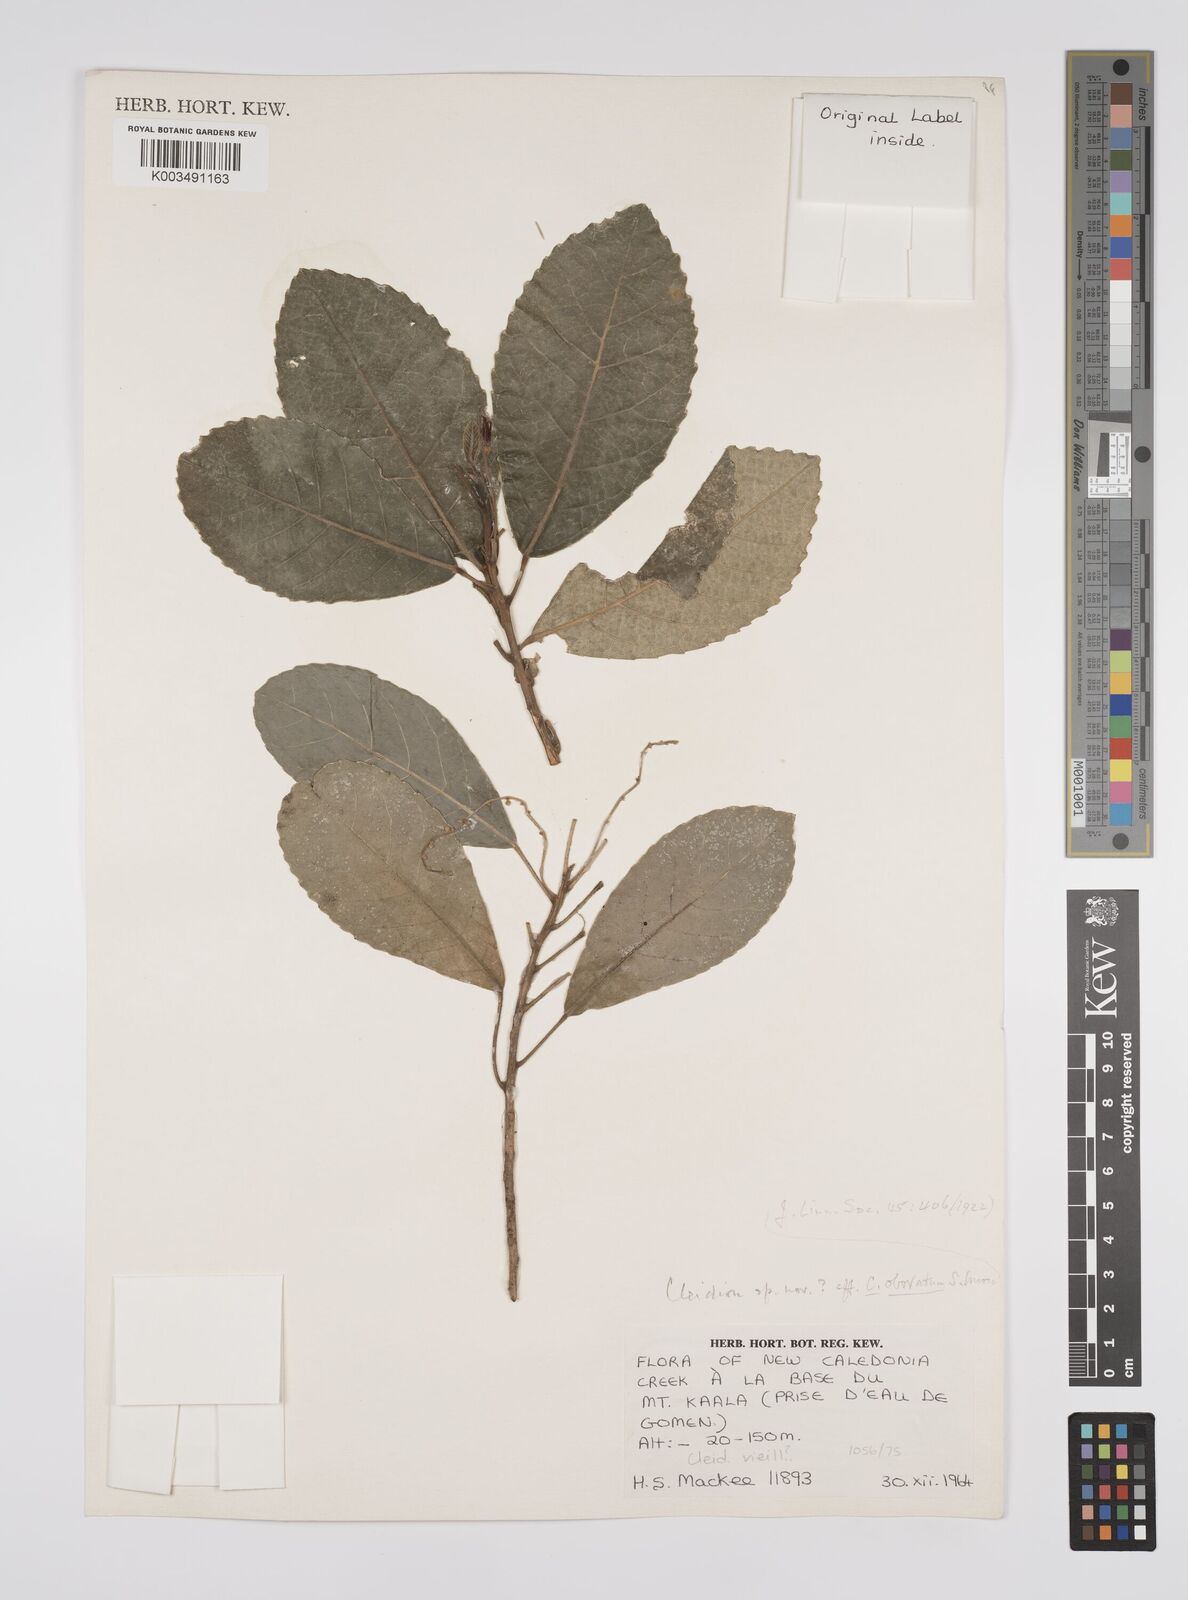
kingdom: Plantae
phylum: Tracheophyta
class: Magnoliopsida
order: Malpighiales
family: Euphorbiaceae
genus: Cleidion
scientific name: Cleidion claoxyloides
